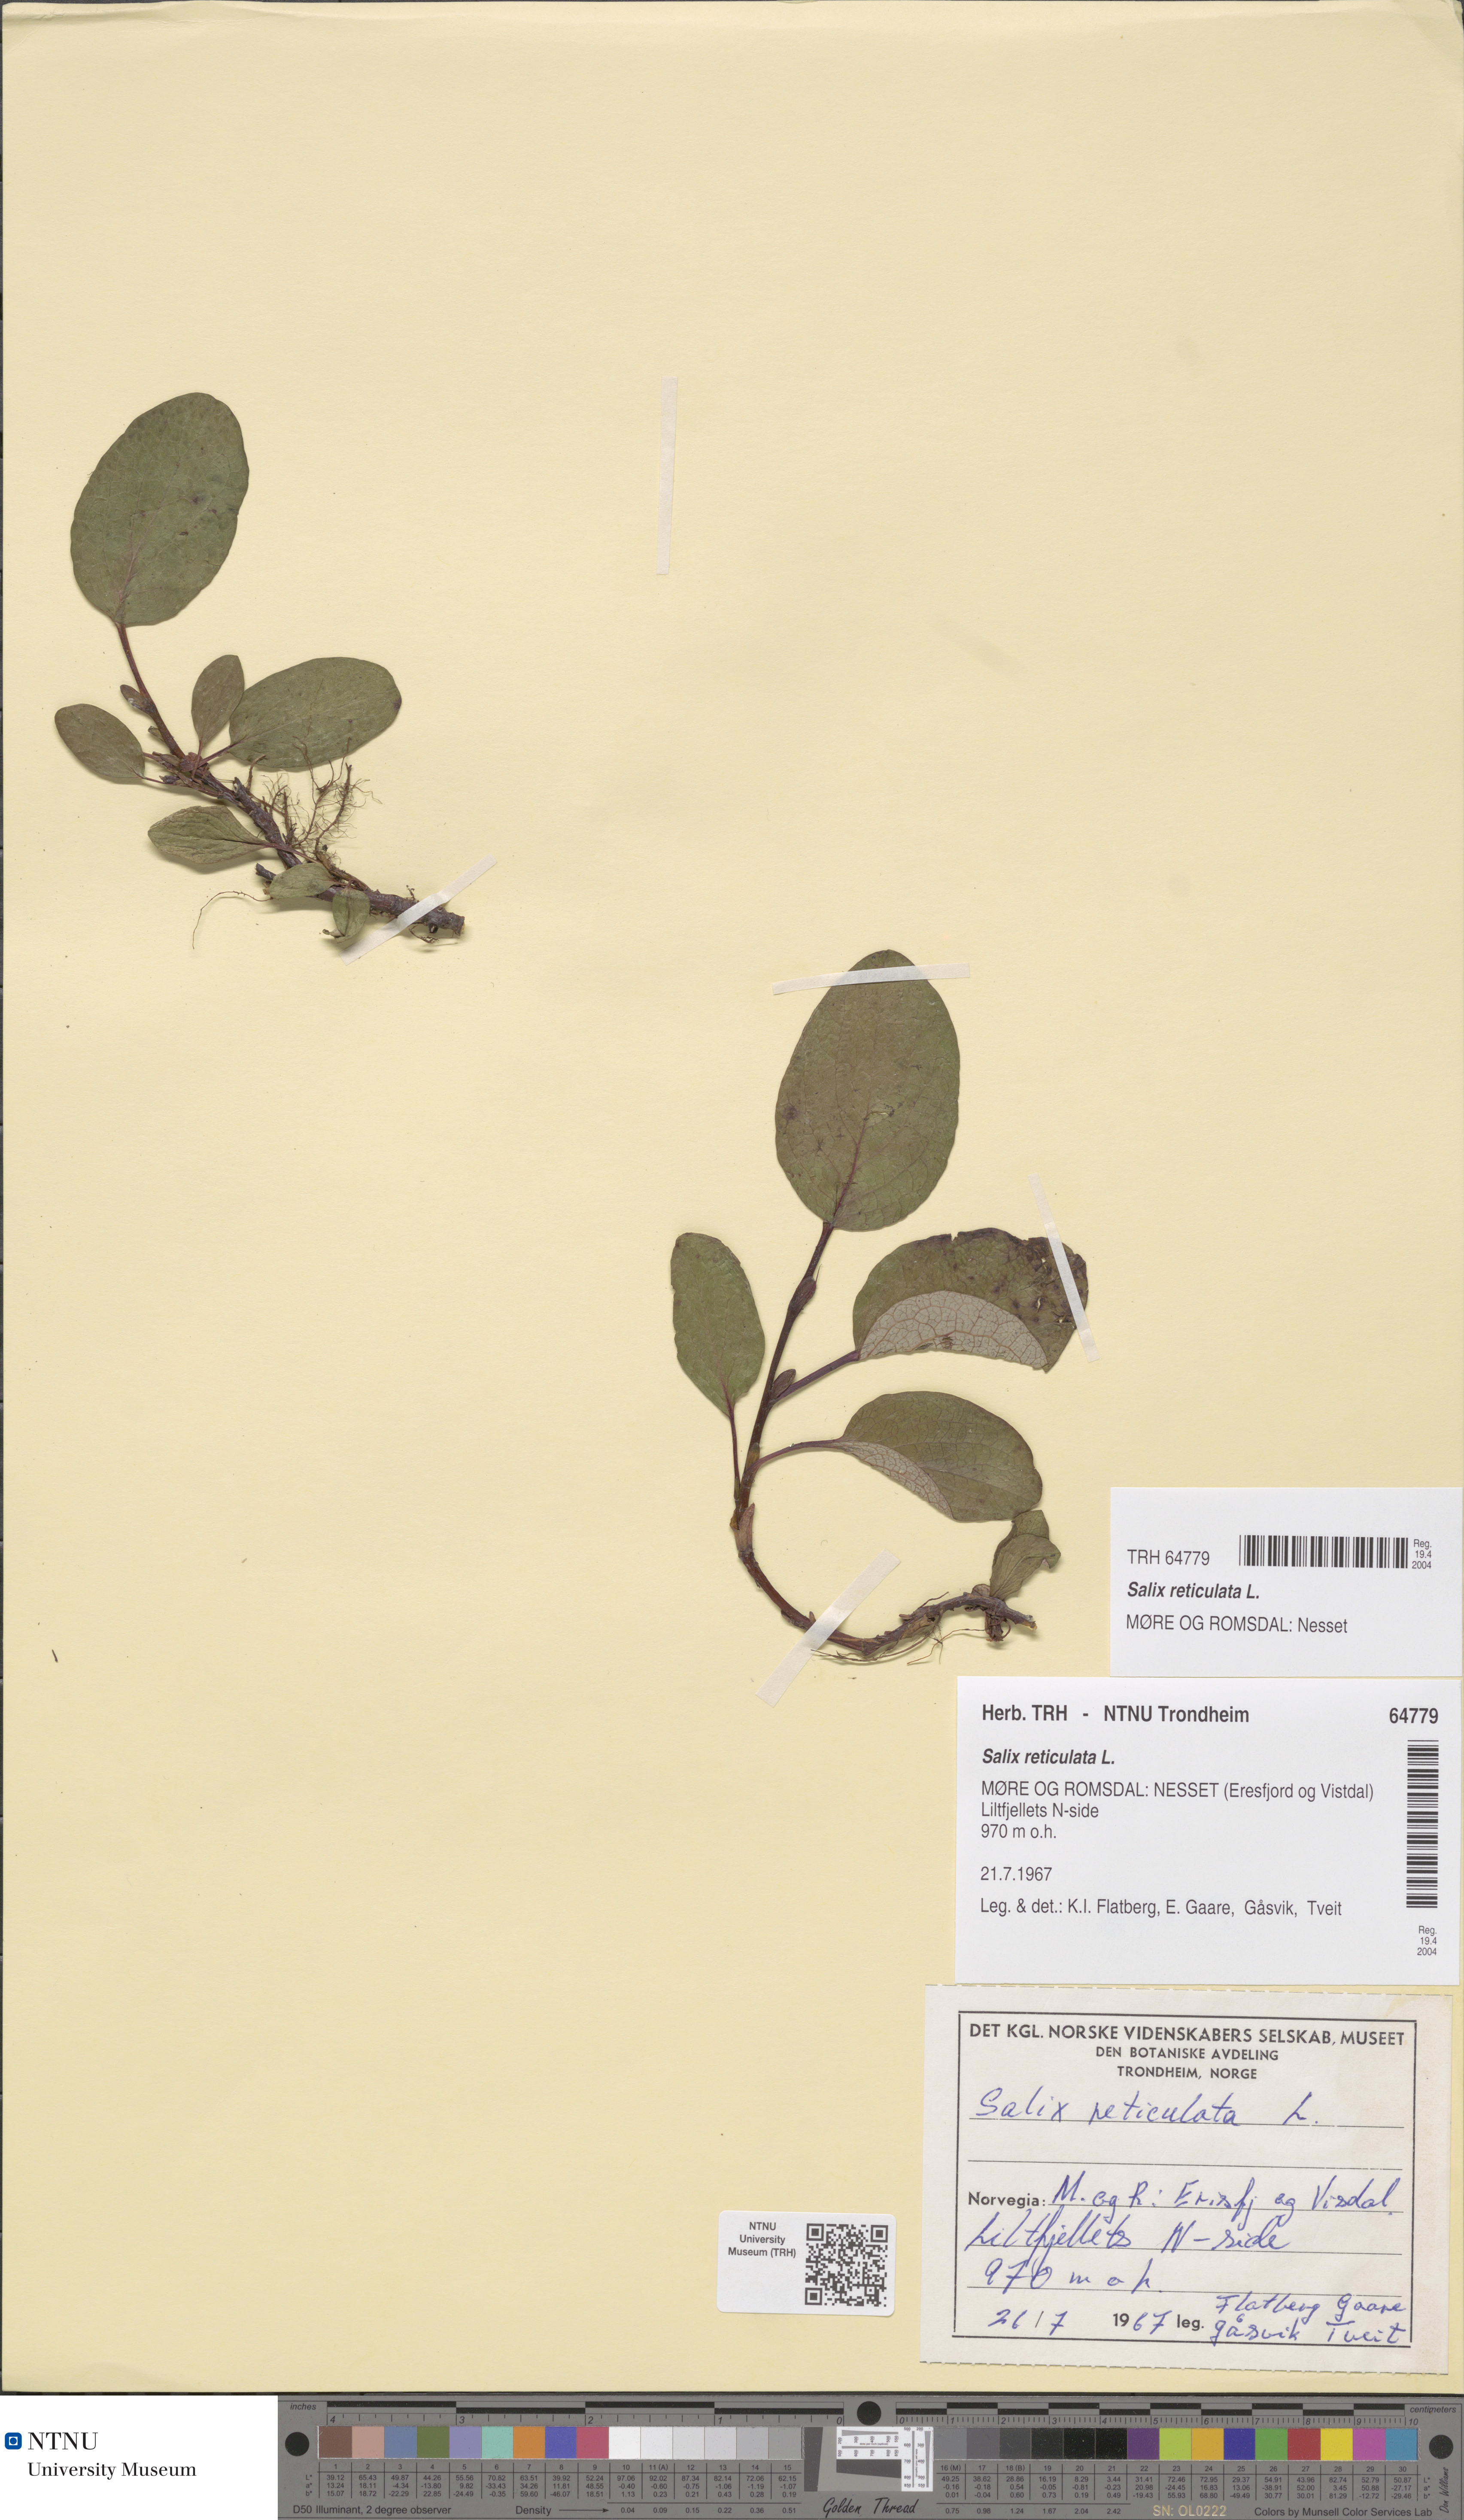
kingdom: Plantae
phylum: Tracheophyta
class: Magnoliopsida
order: Malpighiales
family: Salicaceae
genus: Salix
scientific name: Salix reticulata
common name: Net-leaved willow
